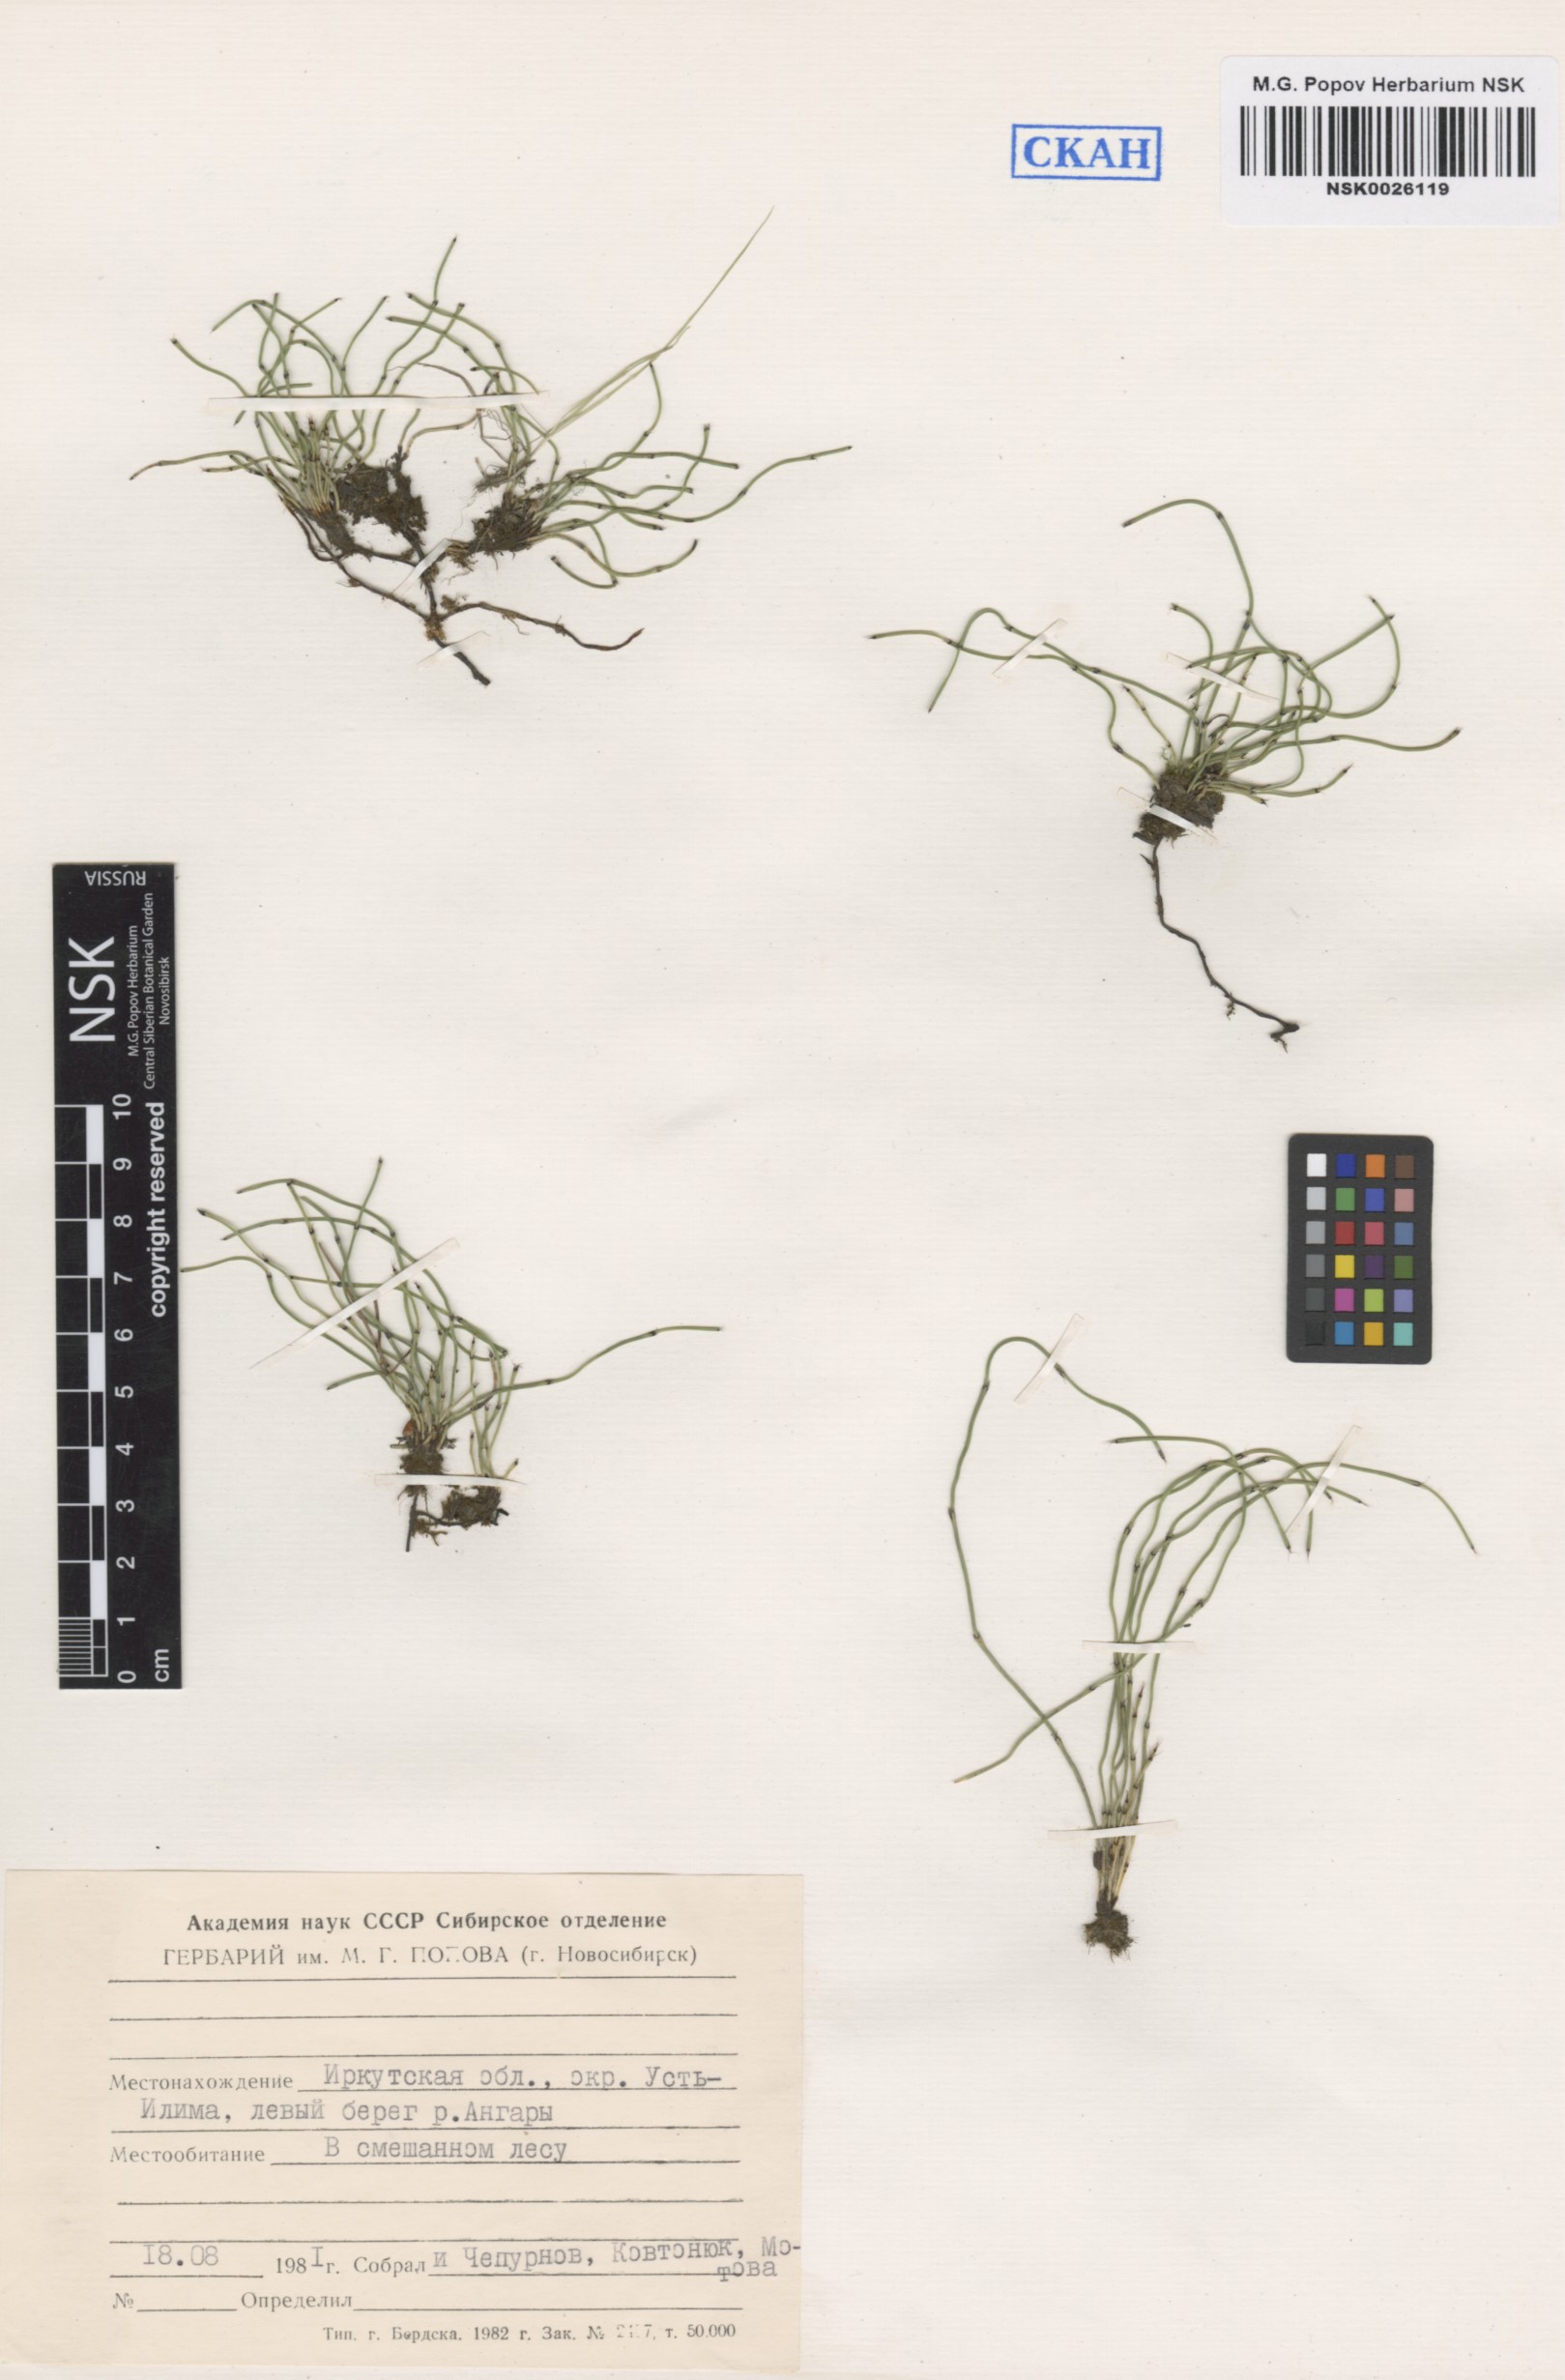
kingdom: Plantae
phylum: Tracheophyta
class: Polypodiopsida
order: Equisetales
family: Equisetaceae
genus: Equisetum
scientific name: Equisetum scirpoides
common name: Delicate horsetail
